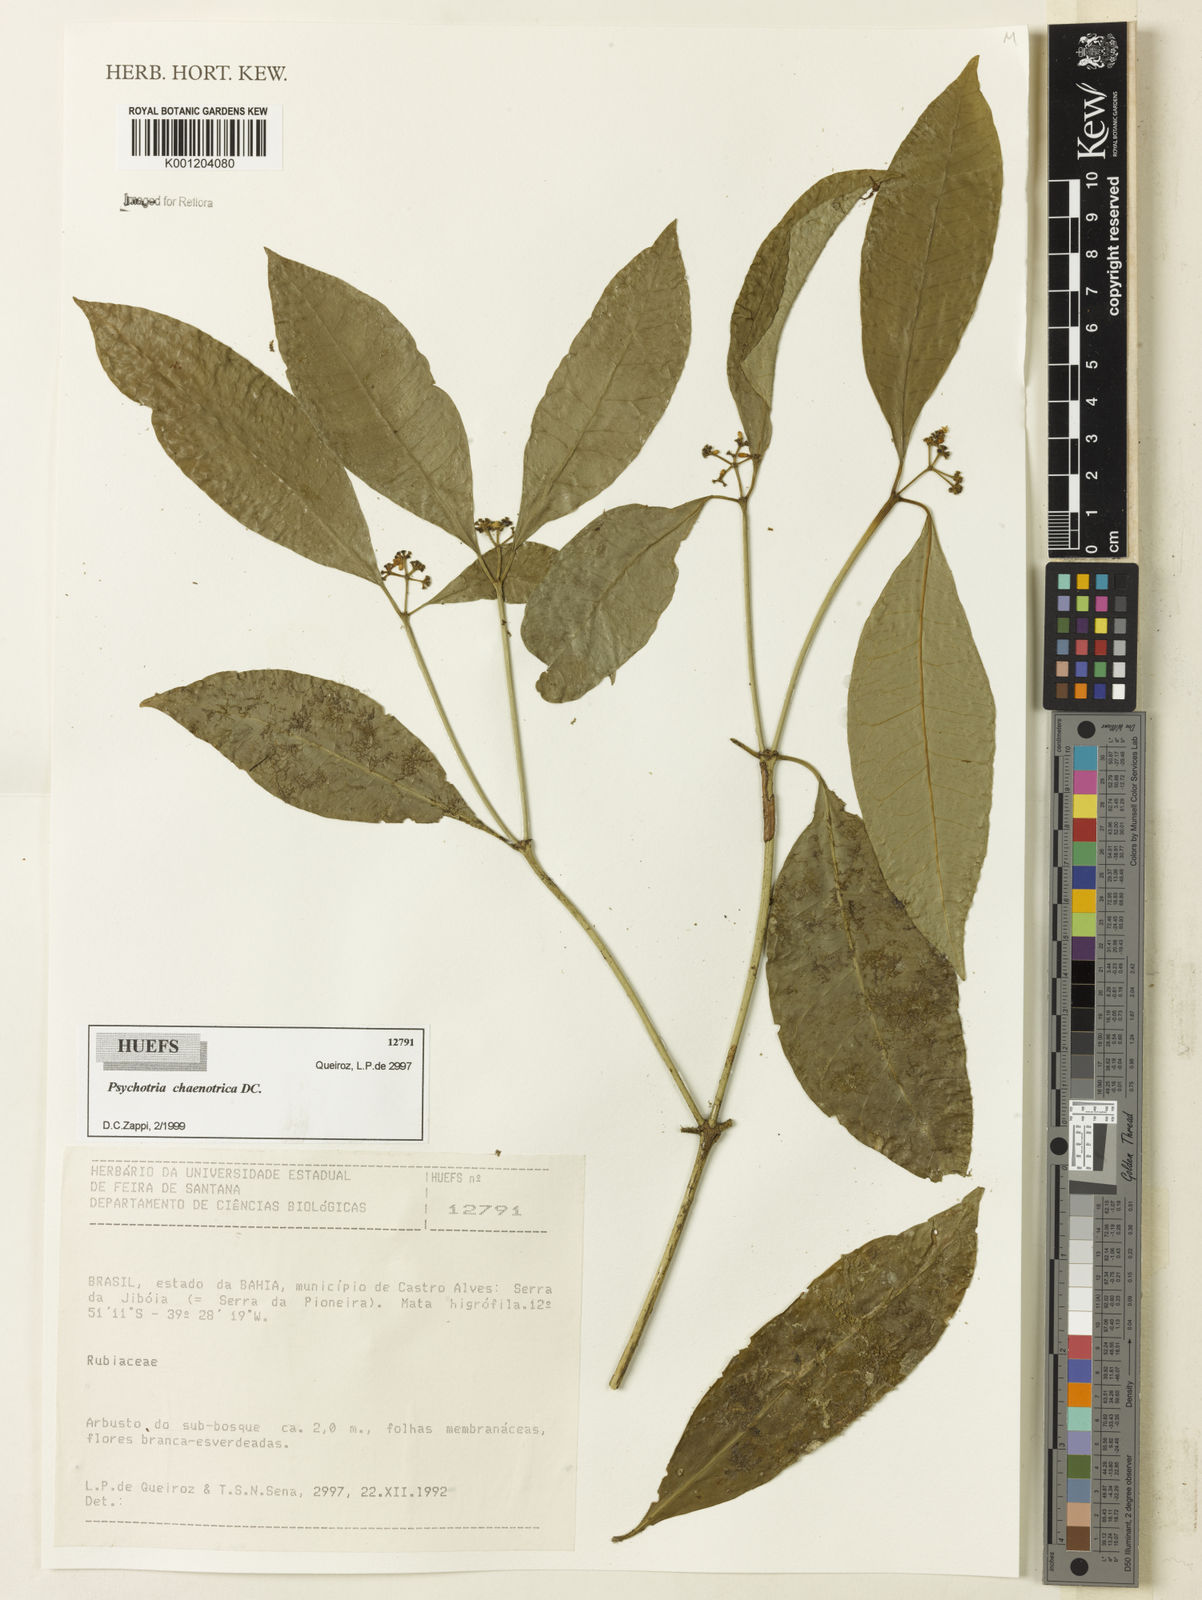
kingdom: Plantae
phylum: Tracheophyta
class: Magnoliopsida
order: Gentianales
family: Rubiaceae
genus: Eumachia
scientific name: Eumachia chaenotricha
